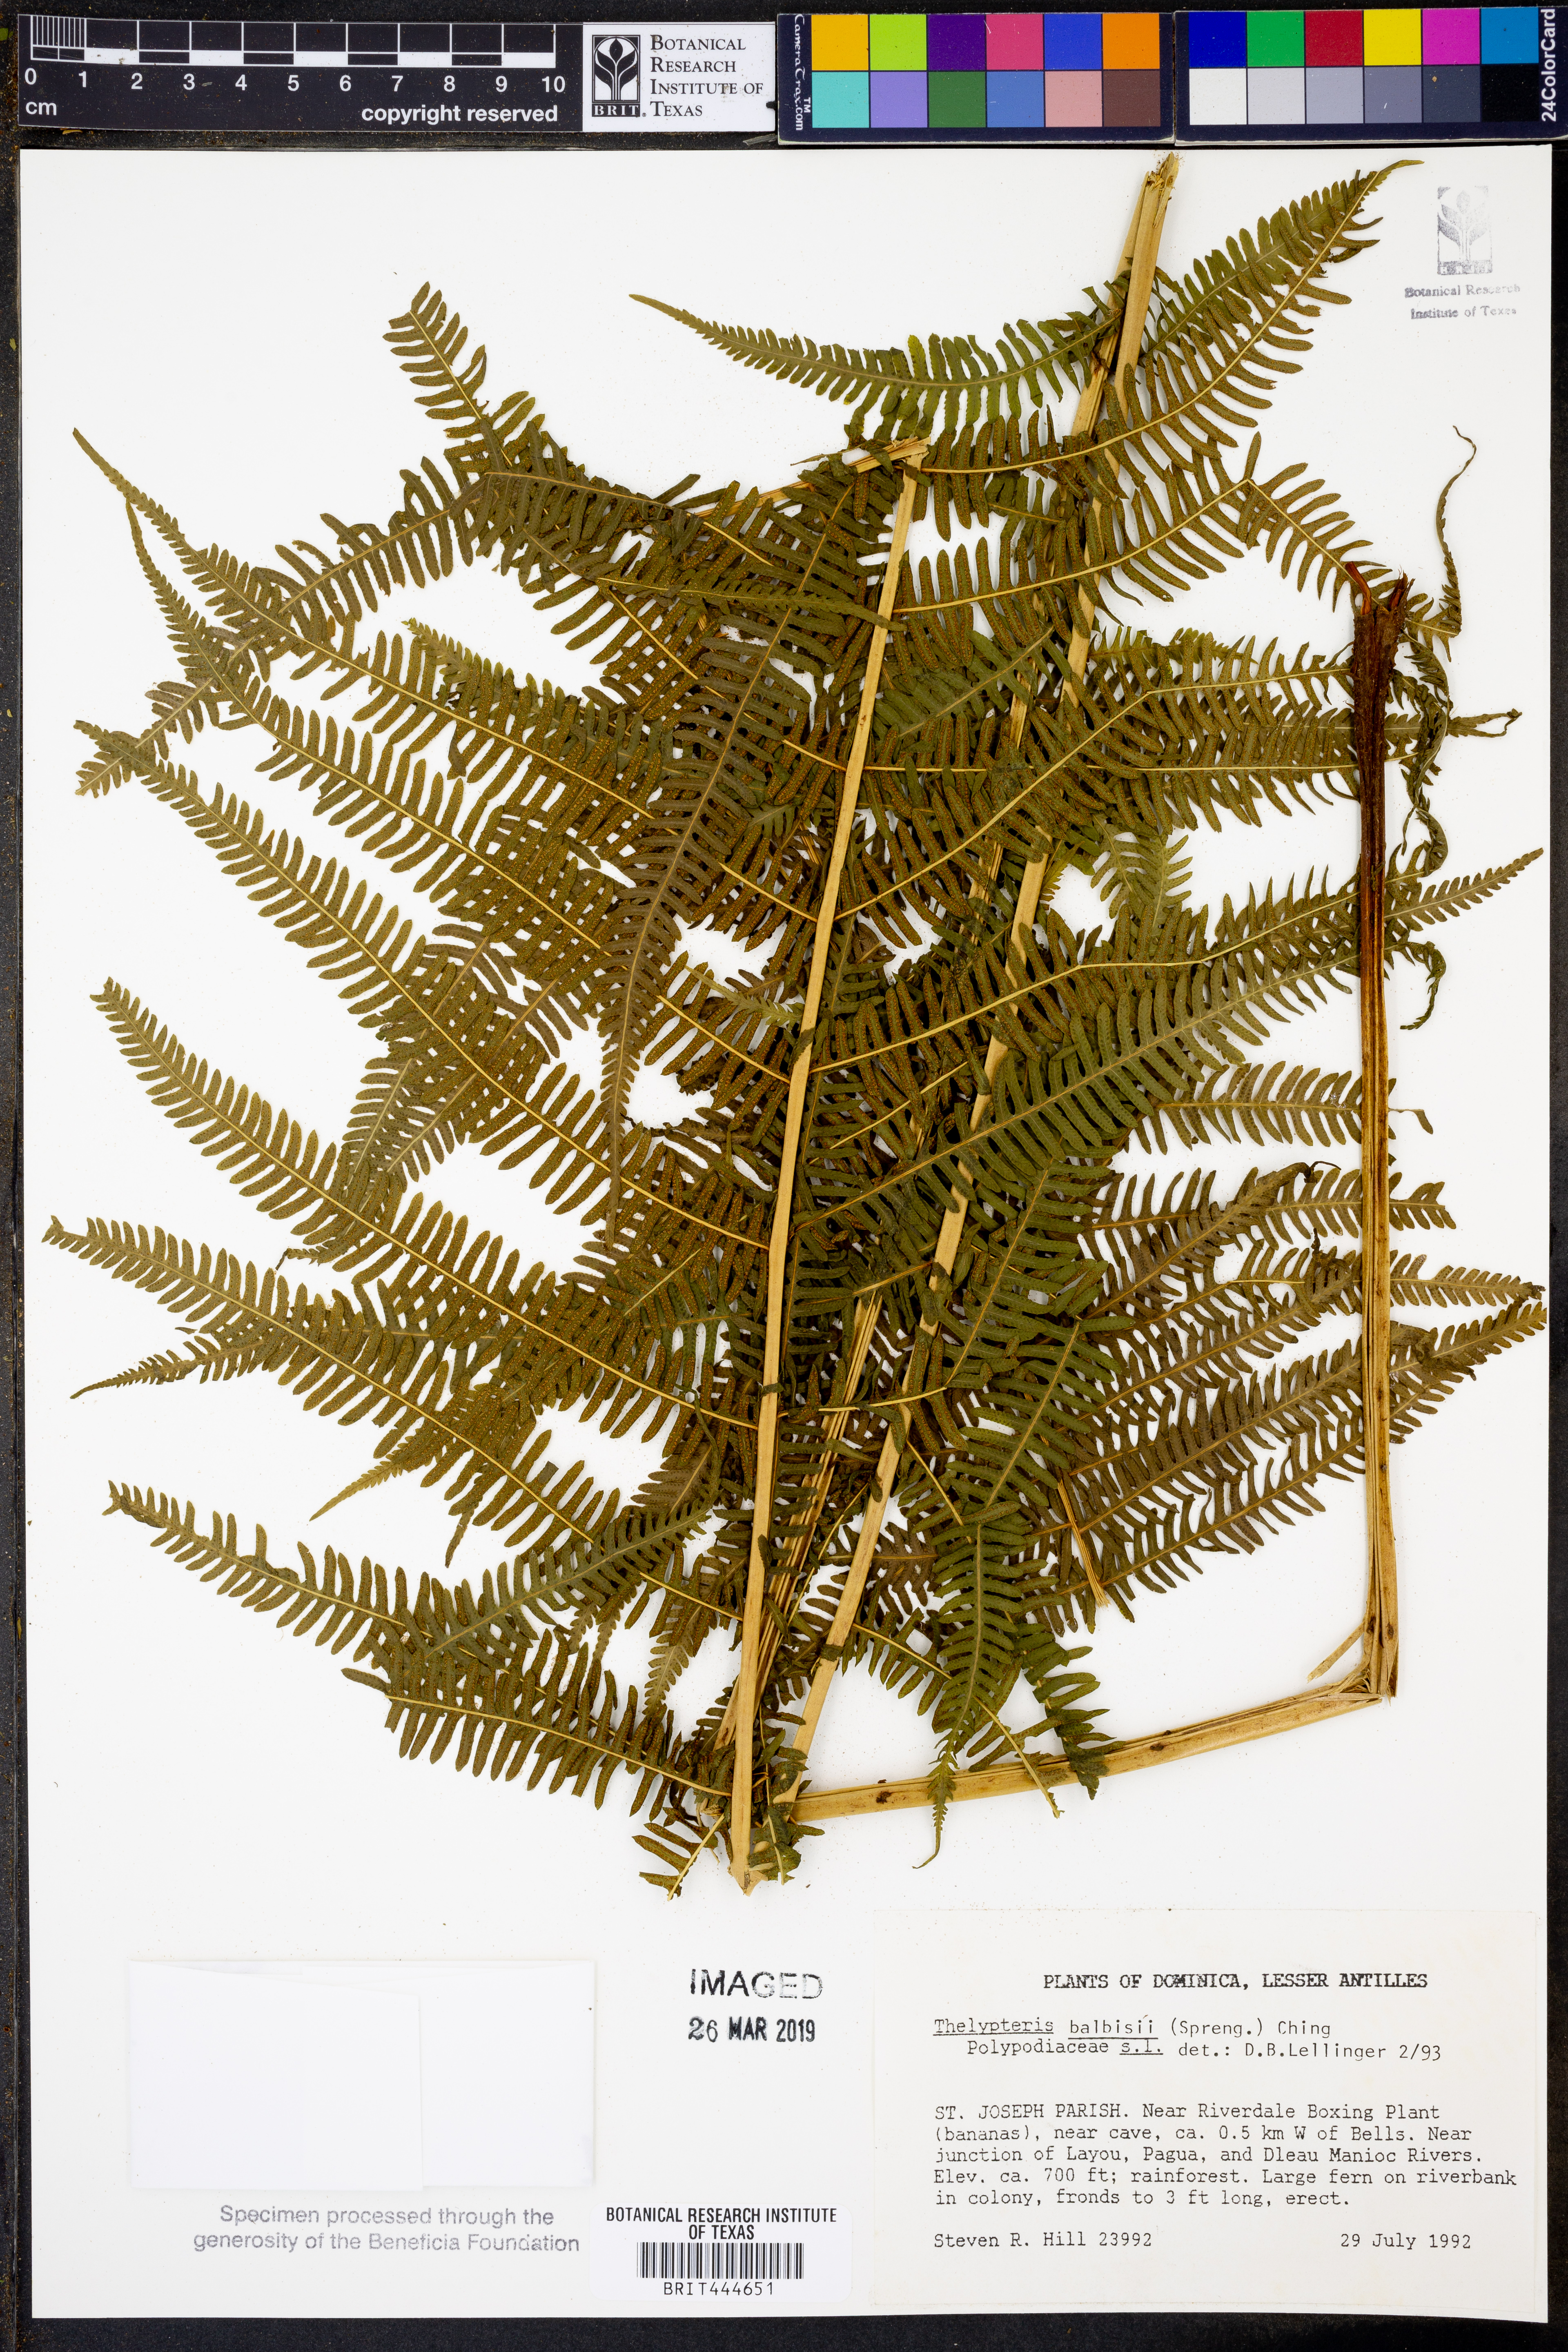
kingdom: Plantae
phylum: Tracheophyta
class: Polypodiopsida
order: Polypodiales
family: Thelypteridaceae
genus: Amauropelta
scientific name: Amauropelta balbisii
